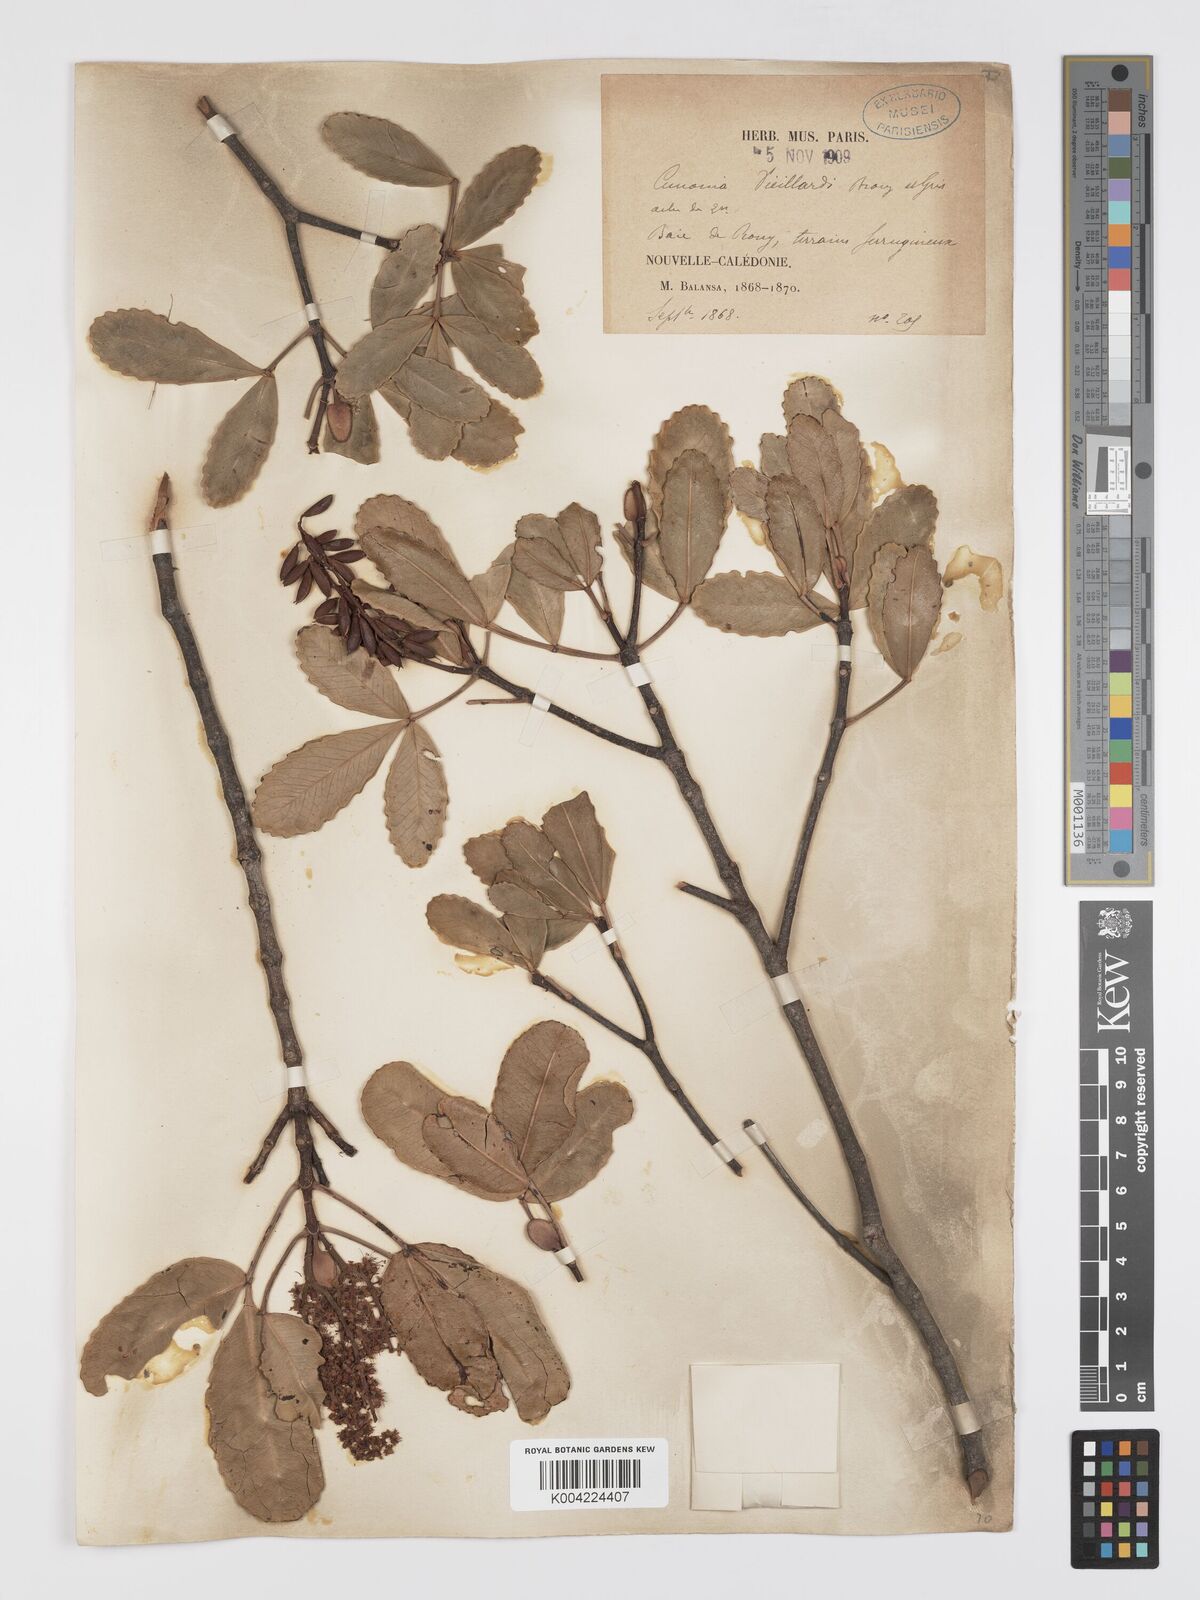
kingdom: Plantae
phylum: Tracheophyta
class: Magnoliopsida
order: Oxalidales
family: Cunoniaceae
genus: Cunonia
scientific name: Cunonia vieillardii
